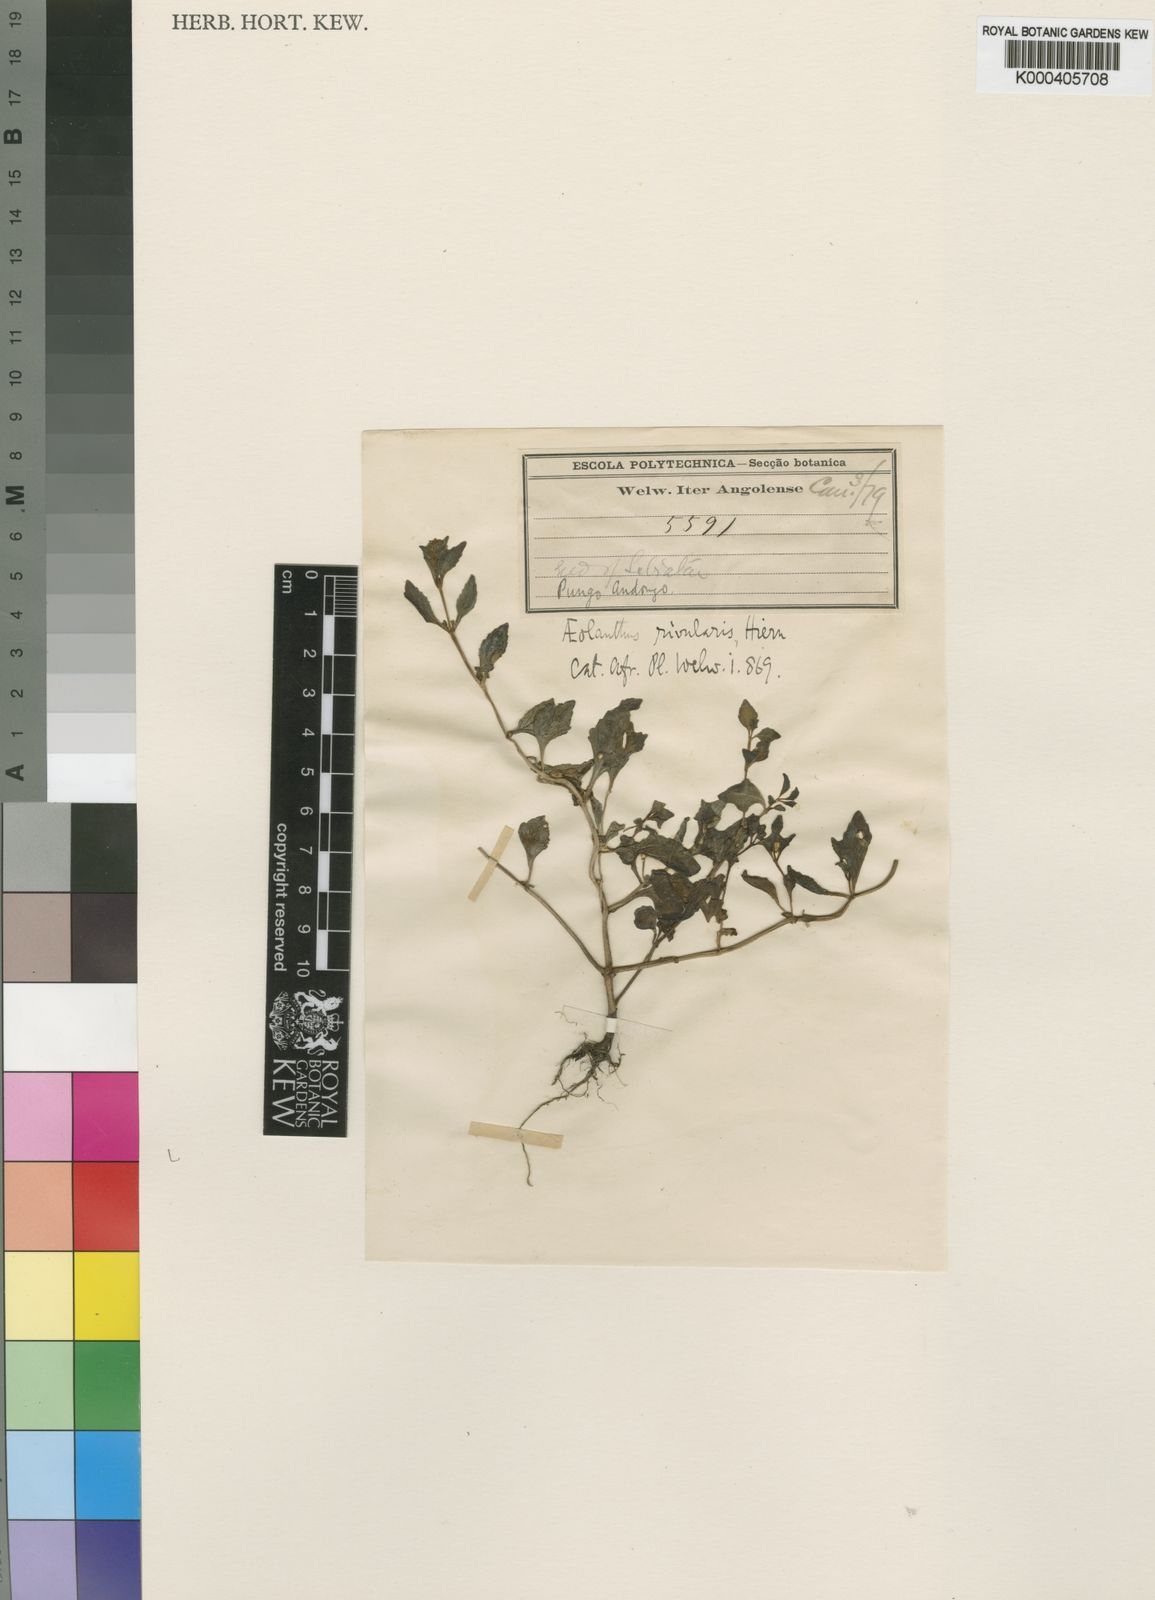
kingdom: Plantae
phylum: Tracheophyta
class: Magnoliopsida
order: Lamiales
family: Lamiaceae
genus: Aeollanthus
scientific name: Aeollanthus rivularis
